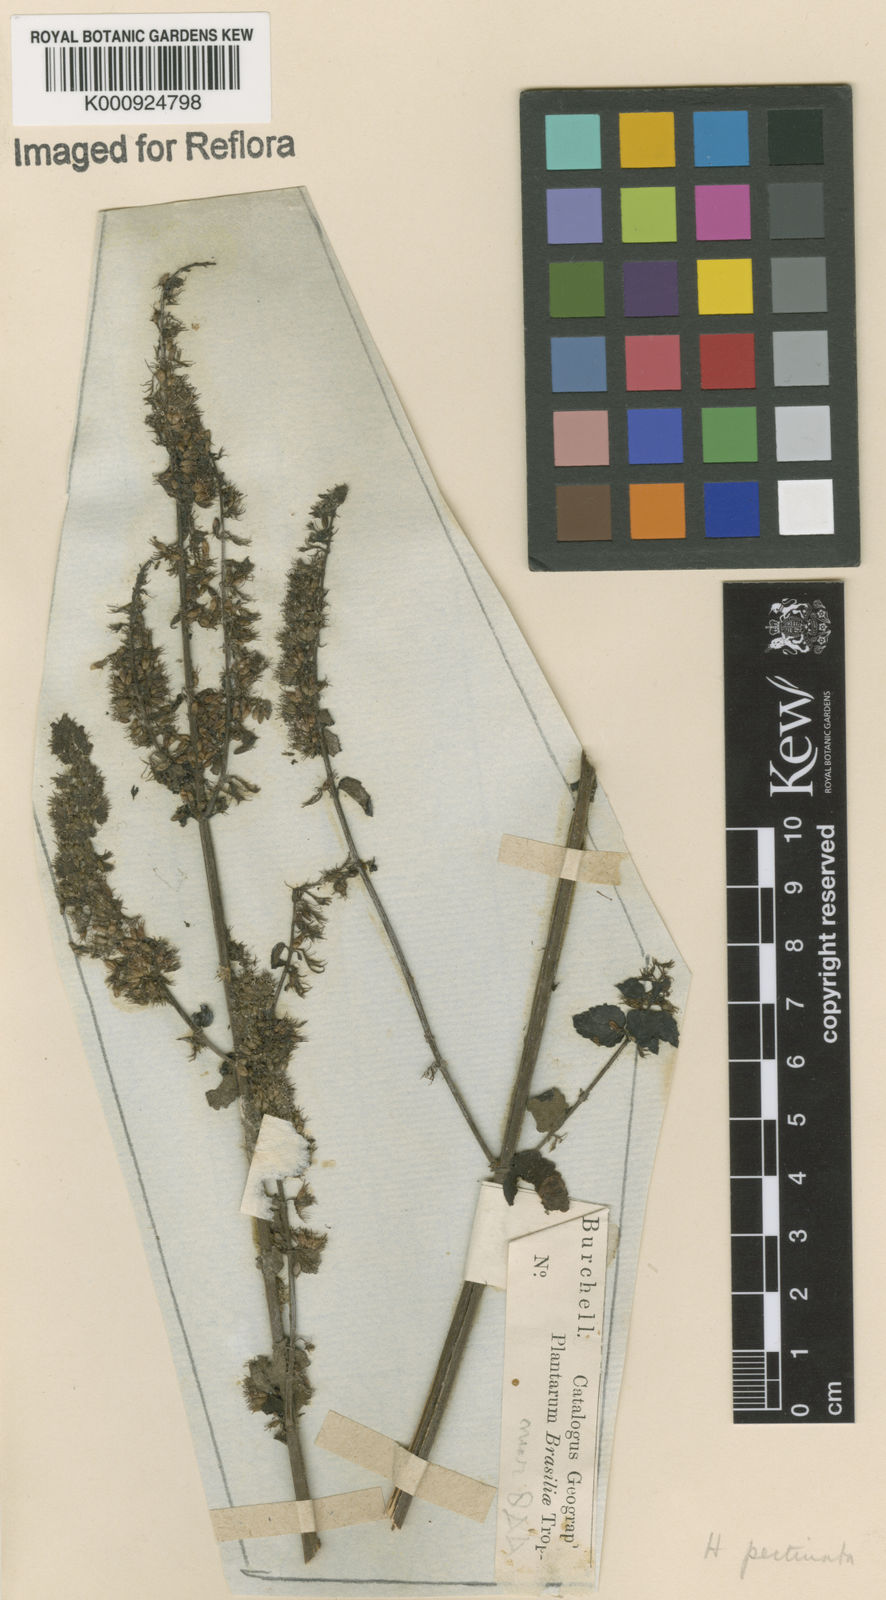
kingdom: Plantae
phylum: Tracheophyta
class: Magnoliopsida
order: Lamiales
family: Lamiaceae
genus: Mesosphaerum
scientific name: Mesosphaerum pectinatum
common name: Comb hyptis
